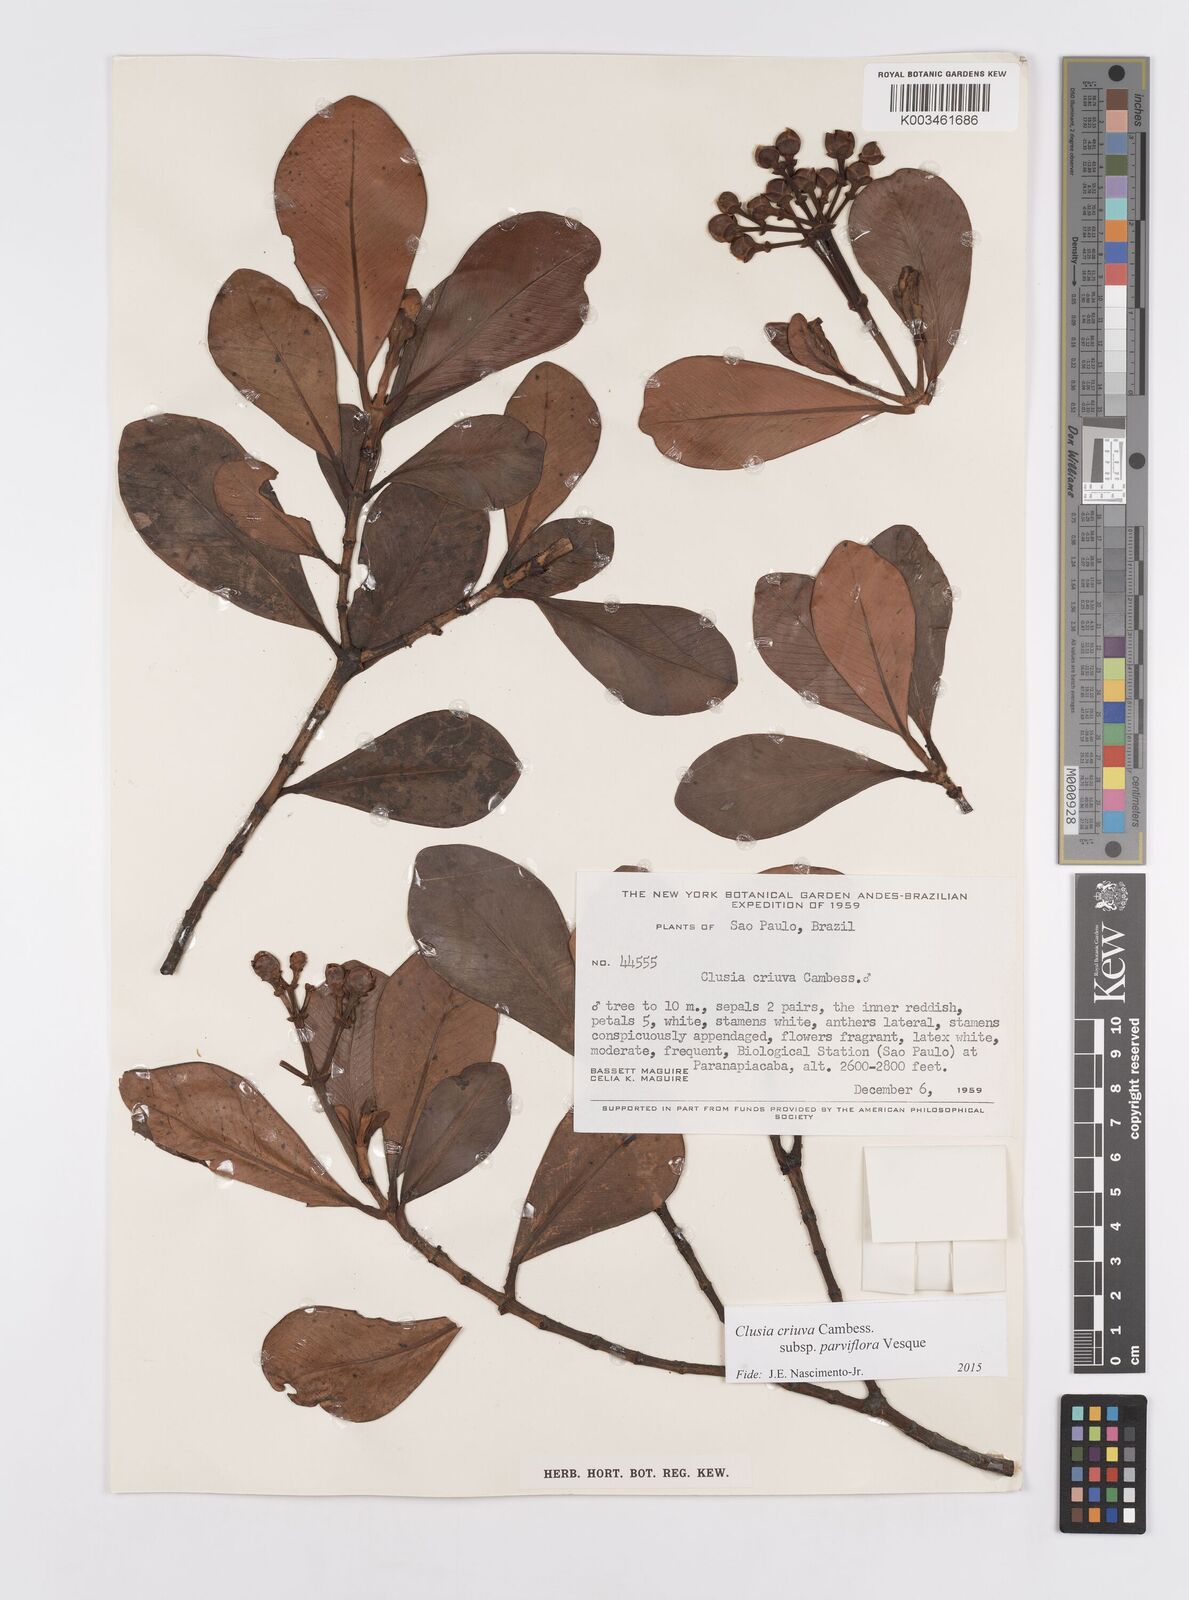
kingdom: Plantae
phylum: Tracheophyta
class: Magnoliopsida
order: Malpighiales
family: Clusiaceae
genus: Clusia
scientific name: Clusia criuva
